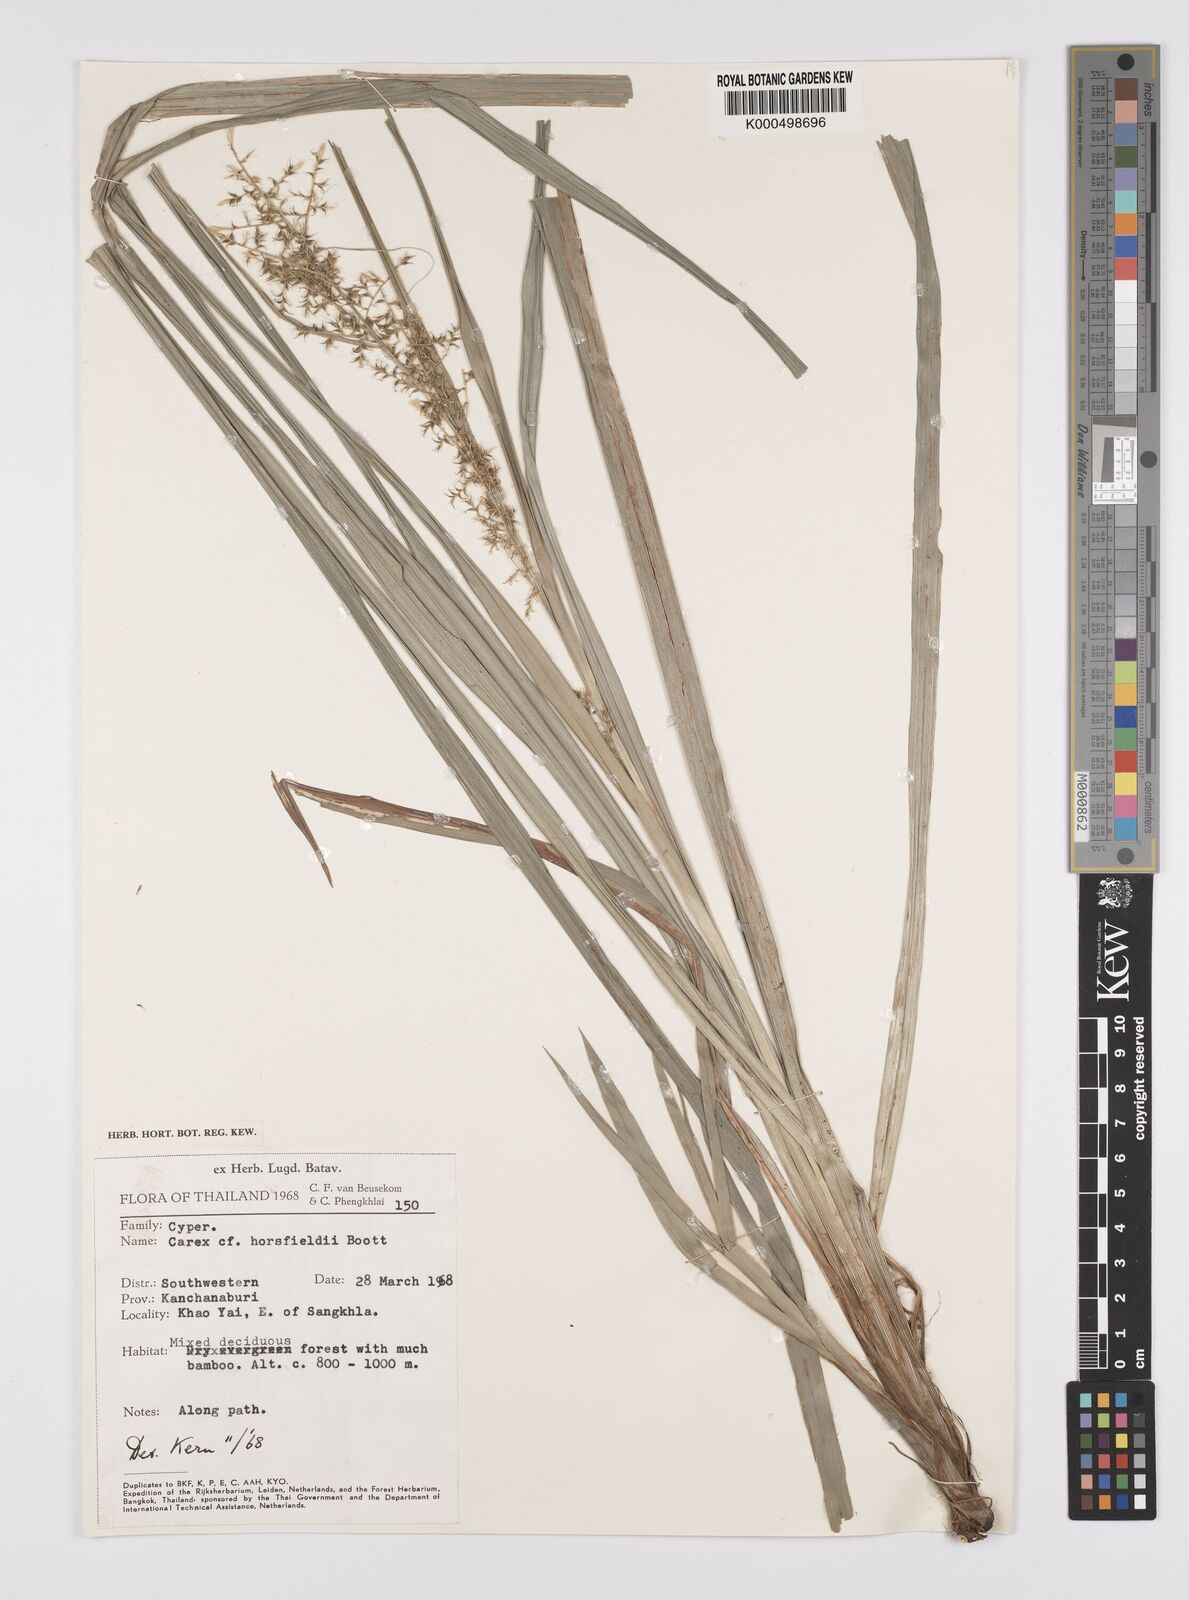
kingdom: Plantae
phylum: Tracheophyta
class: Liliopsida
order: Poales
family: Cyperaceae
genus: Carex
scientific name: Carex horsfieldii
